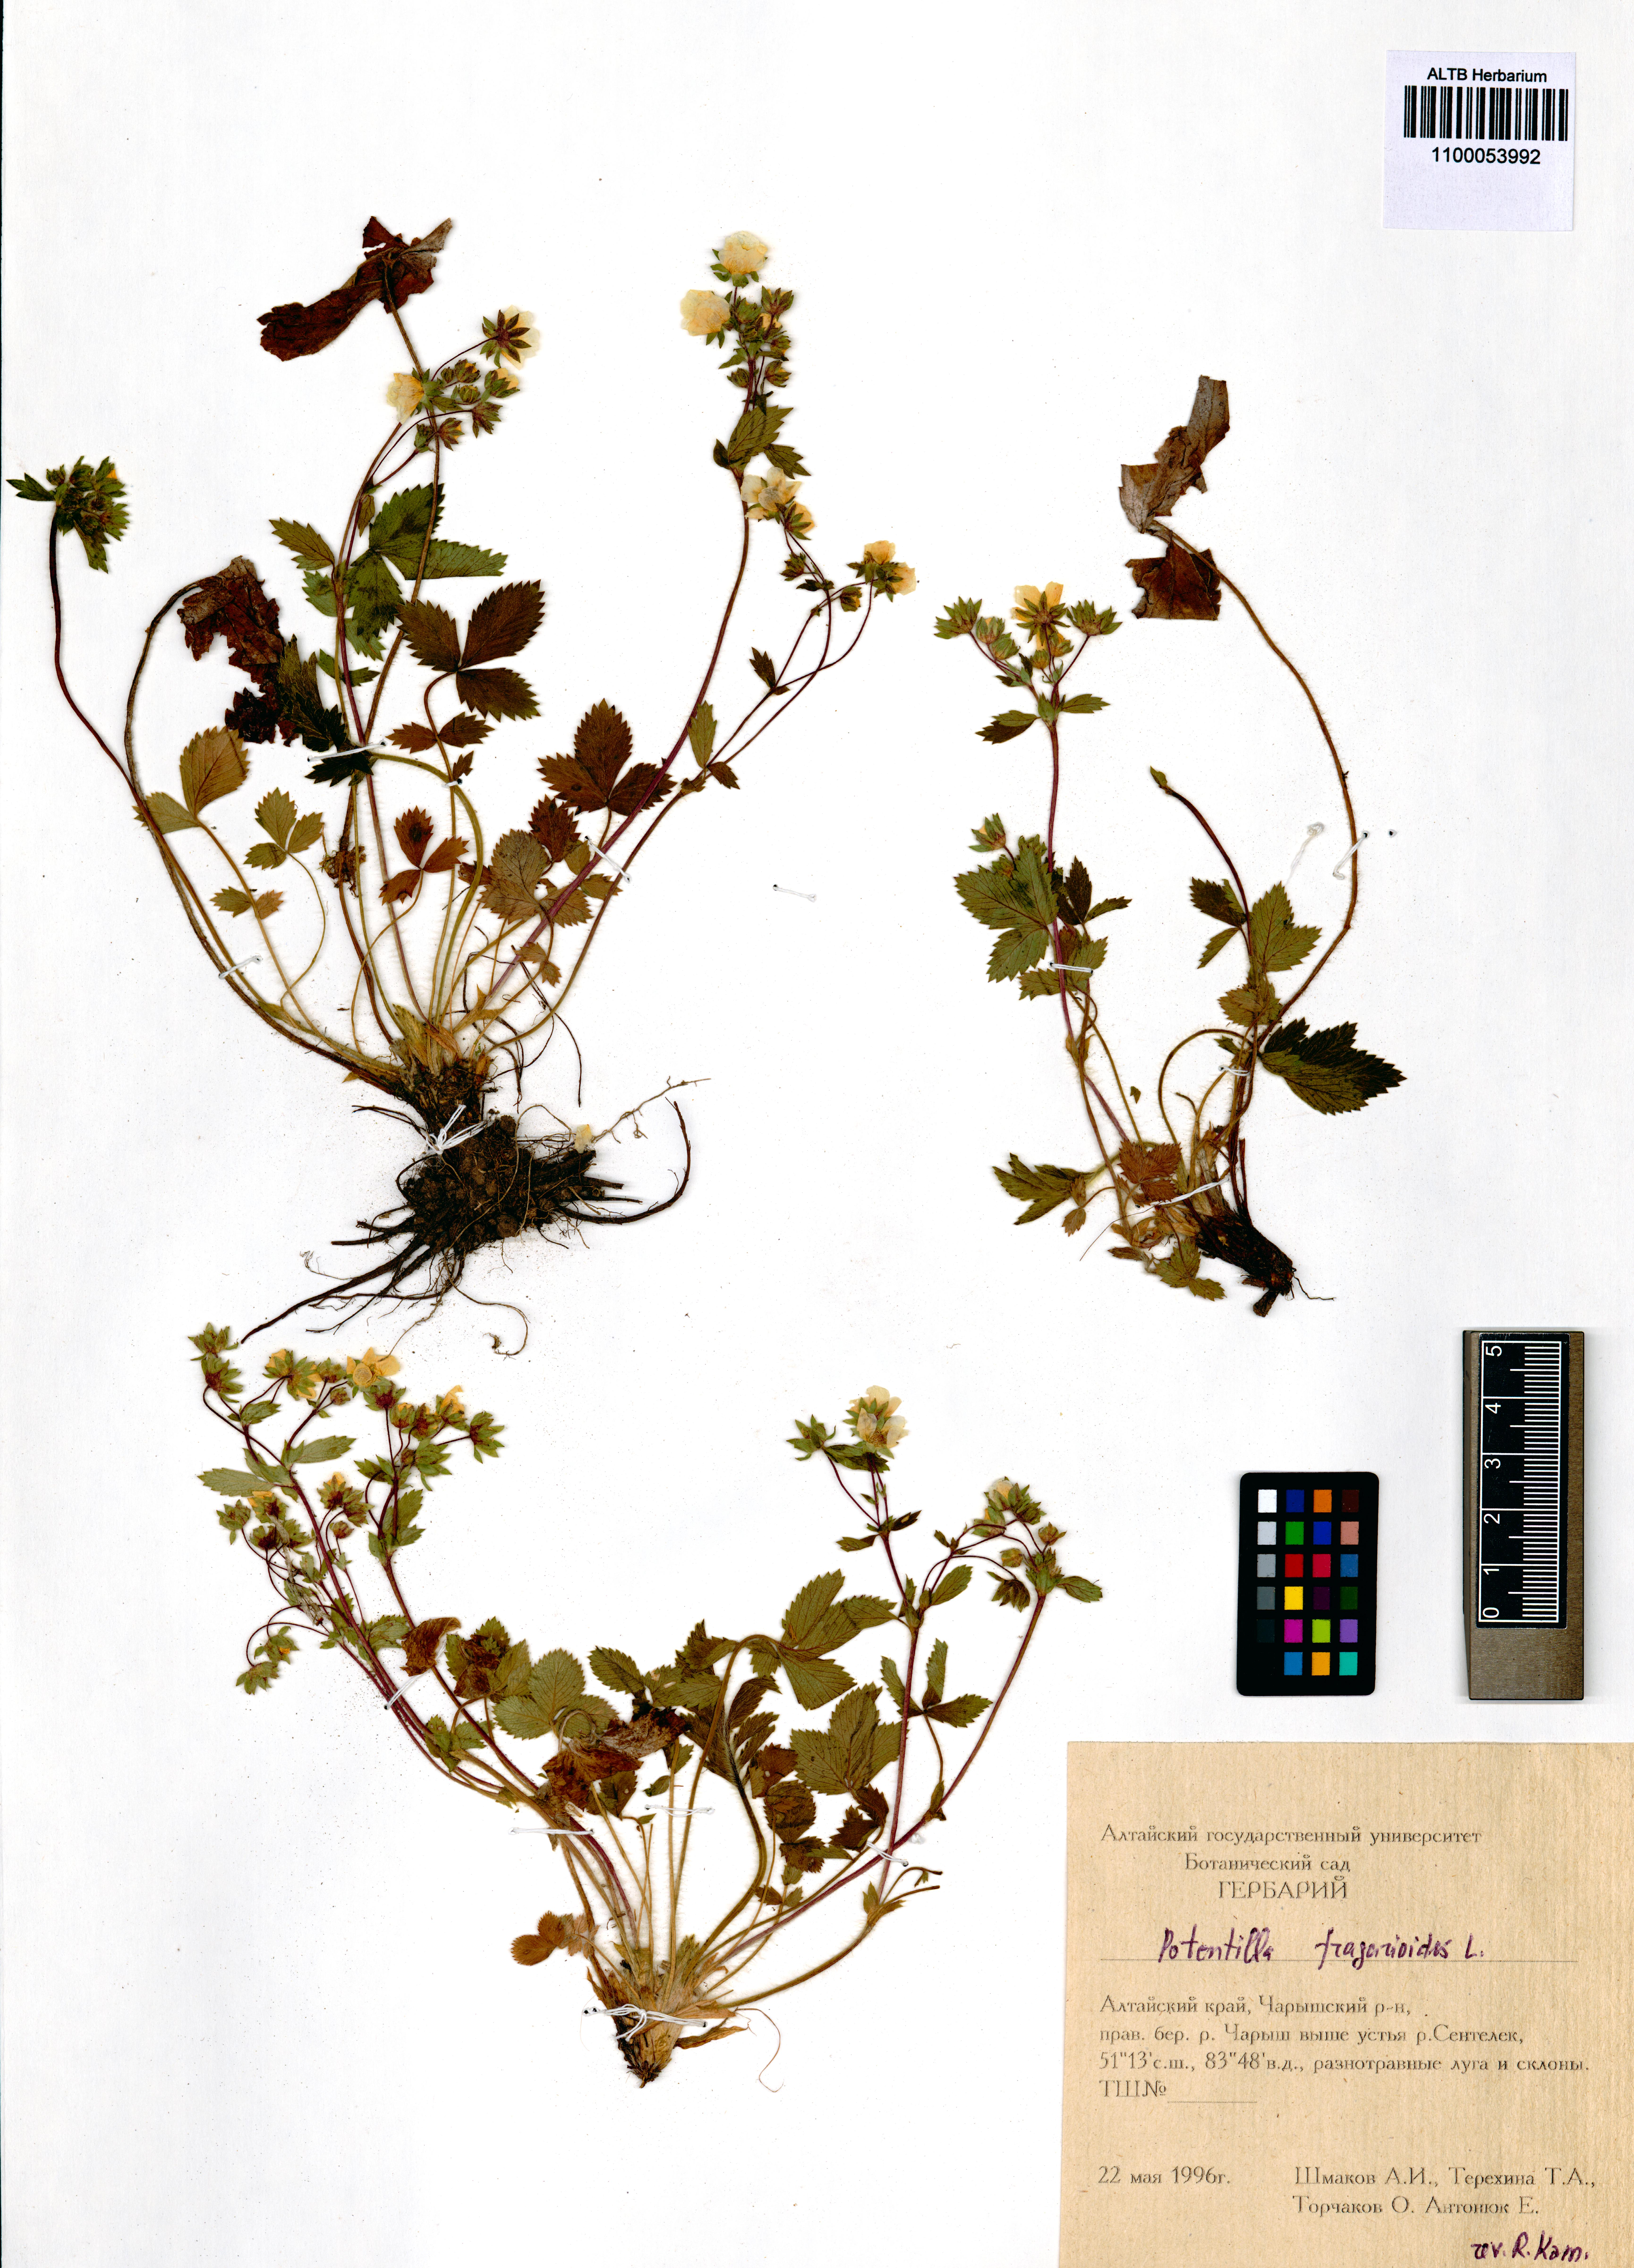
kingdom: Plantae
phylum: Tracheophyta
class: Magnoliopsida
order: Rosales
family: Rosaceae
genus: Potentilla
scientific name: Potentilla fragarioides
